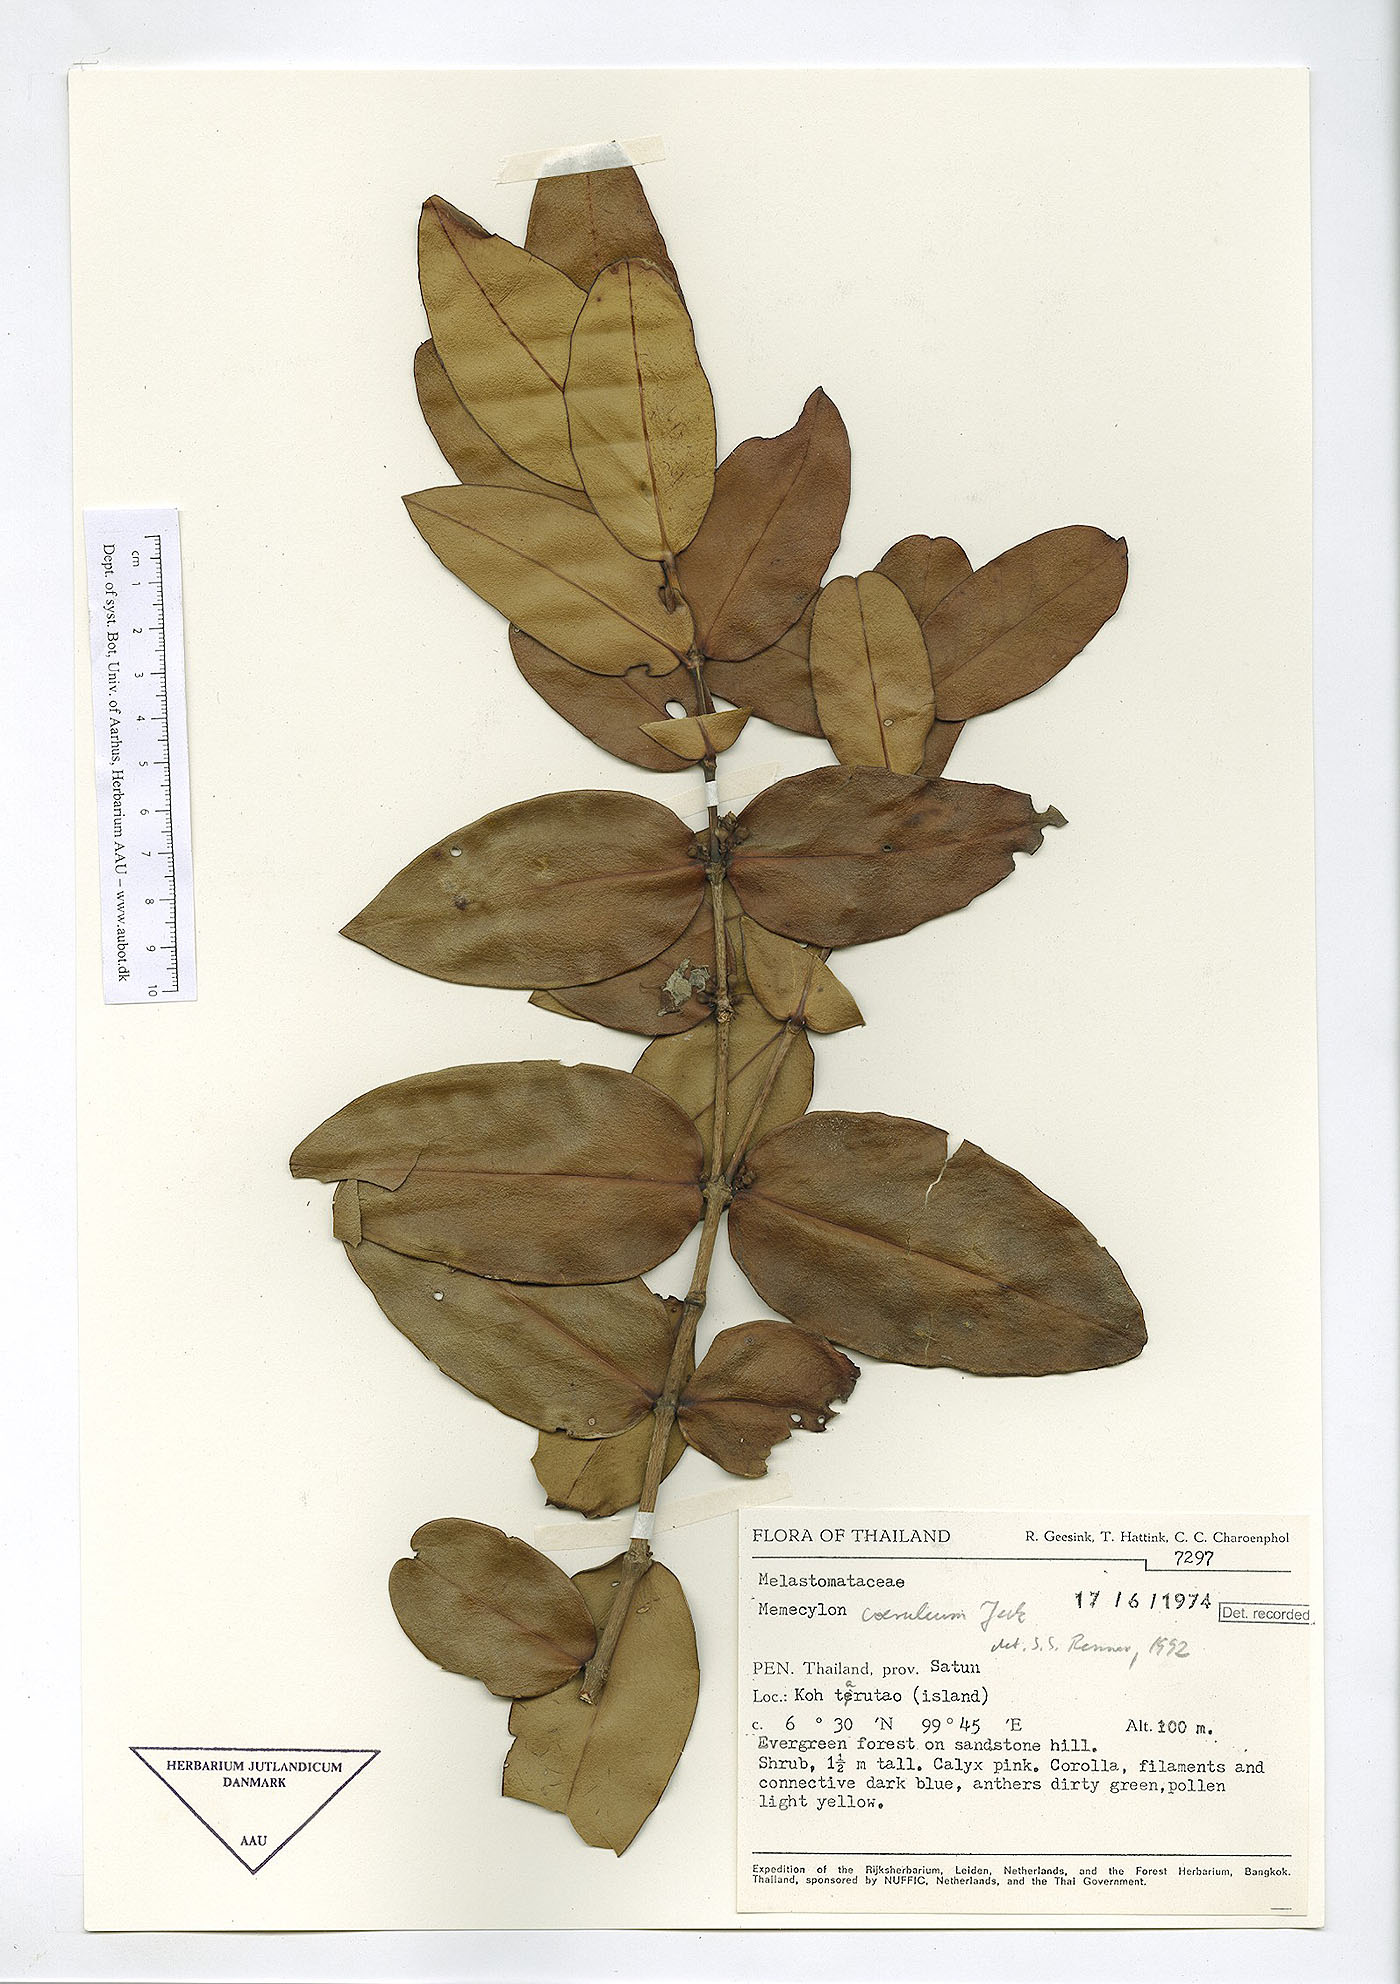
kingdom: Plantae
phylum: Tracheophyta
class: Magnoliopsida
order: Myrtales
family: Melastomataceae
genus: Memecylon
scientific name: Memecylon caeruleum
